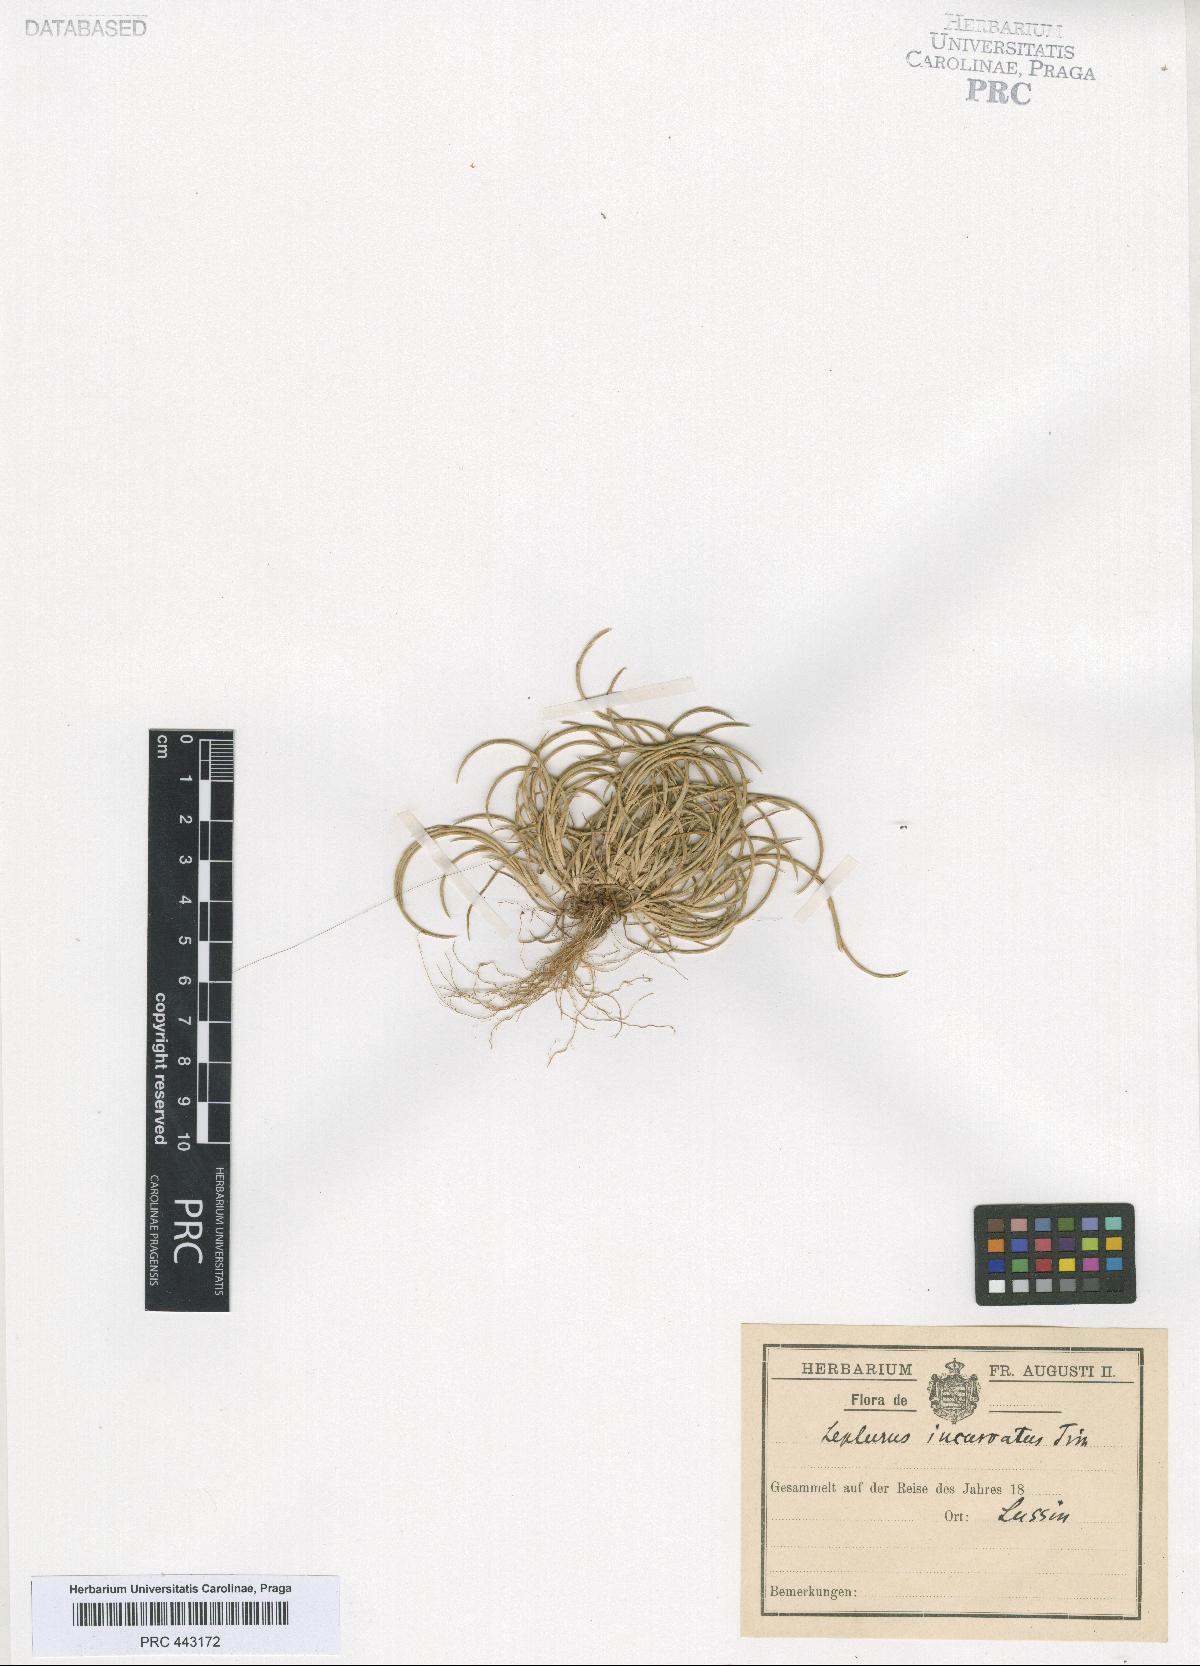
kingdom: Plantae
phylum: Tracheophyta
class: Liliopsida
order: Poales
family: Poaceae
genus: Parapholis
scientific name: Parapholis incurva
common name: Curved sicklegrass
